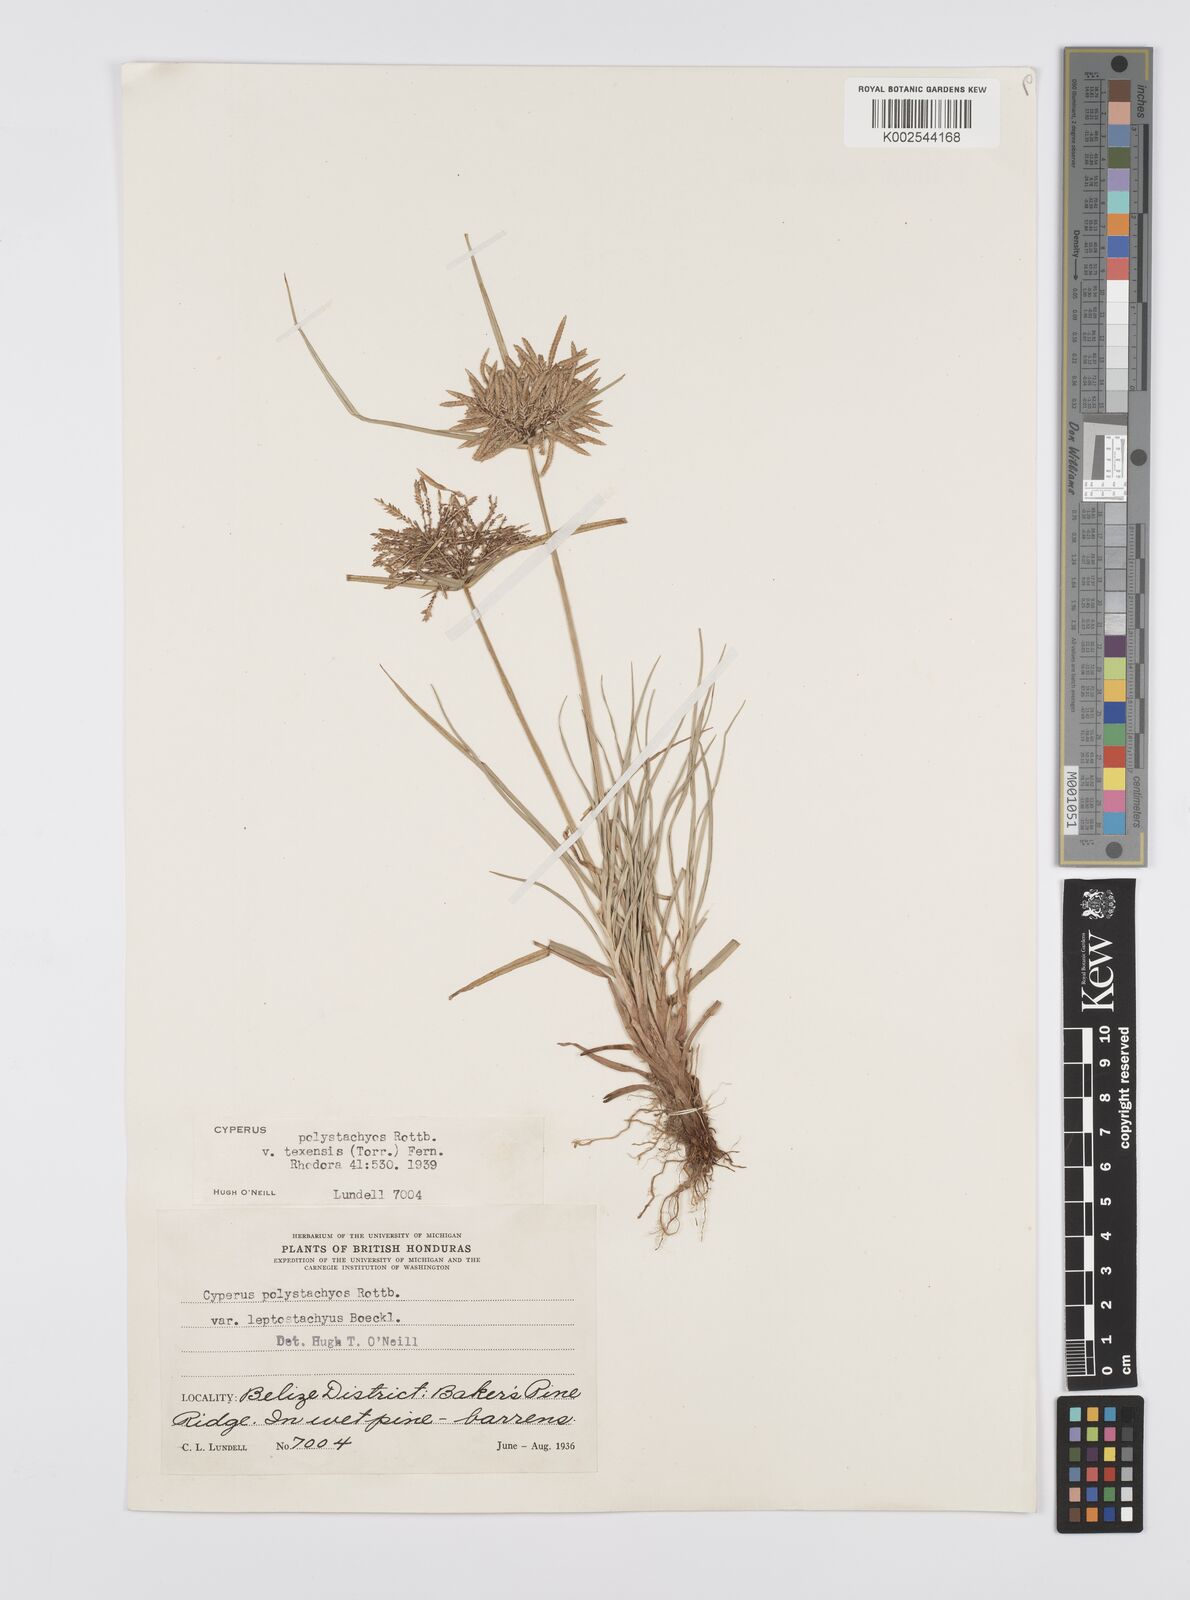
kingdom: Plantae
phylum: Tracheophyta
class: Liliopsida
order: Poales
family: Cyperaceae
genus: Cyperus
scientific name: Cyperus polystachyos
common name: Bunchy flat sedge
